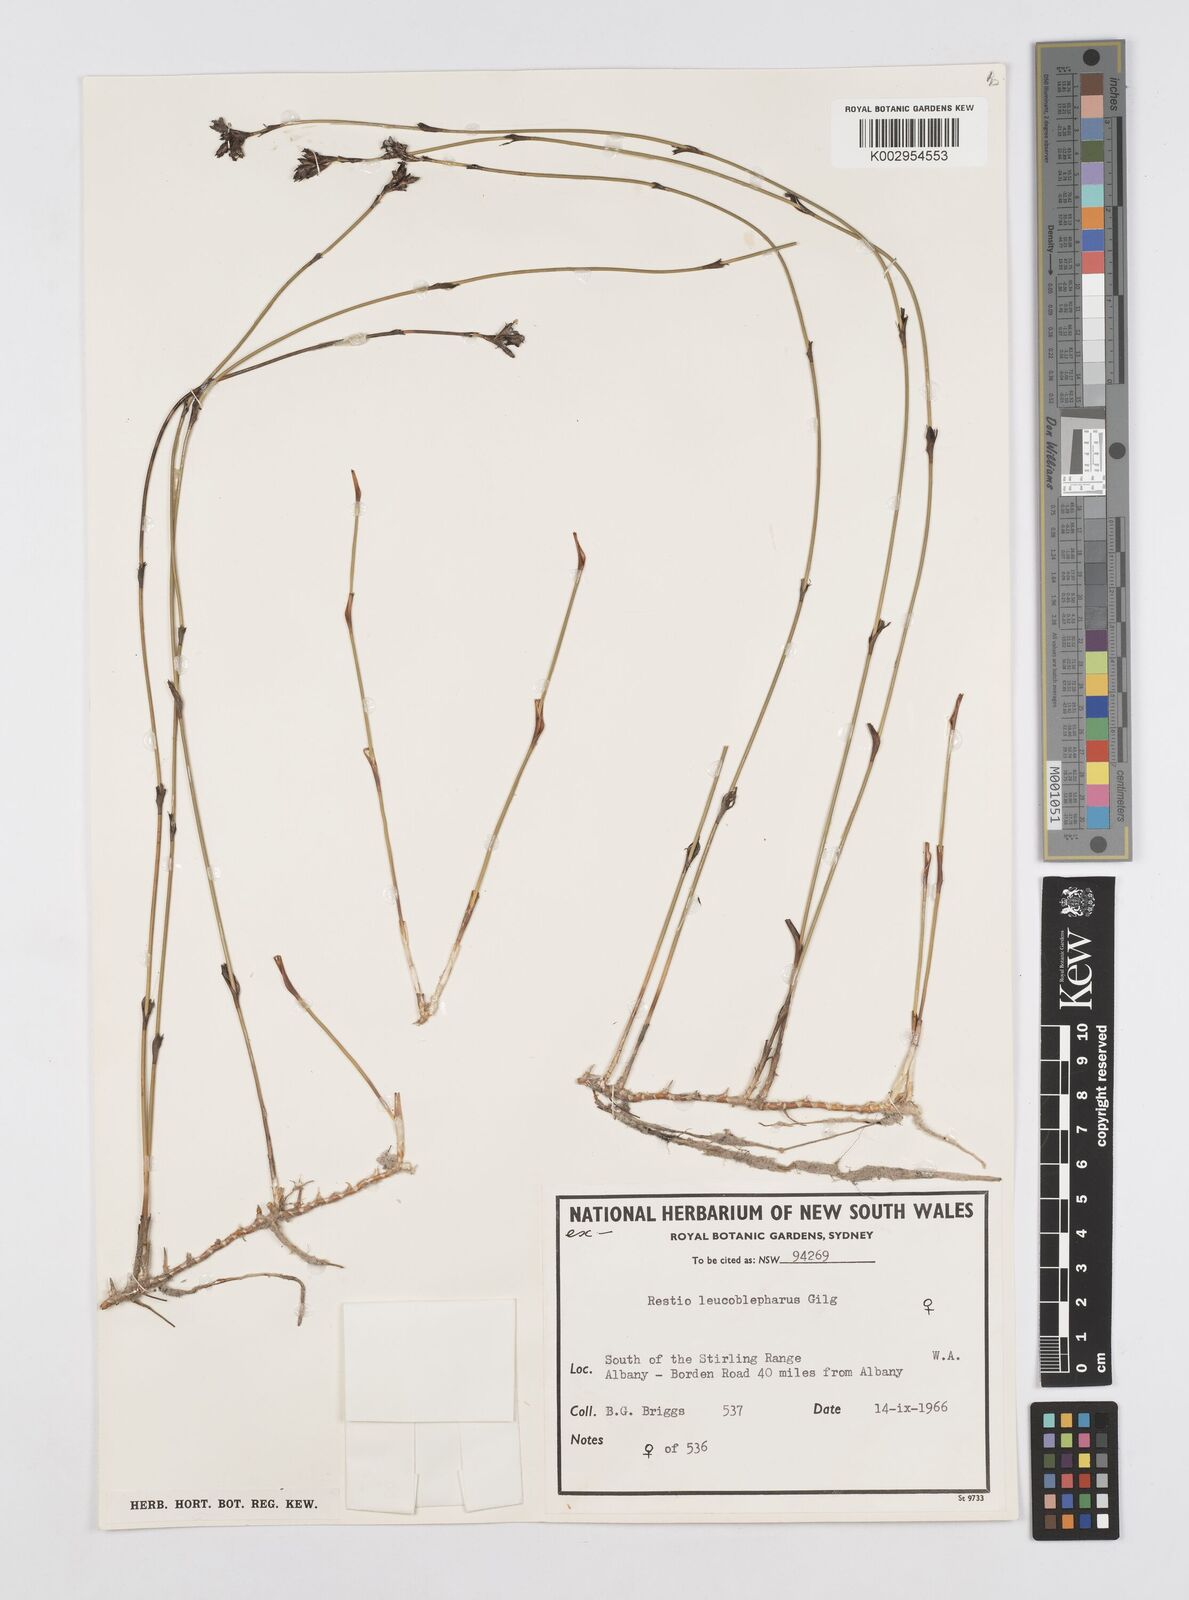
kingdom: Plantae
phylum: Tracheophyta
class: Liliopsida
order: Poales
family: Restionaceae
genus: Chordifex
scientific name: Chordifex leucoblepharus
